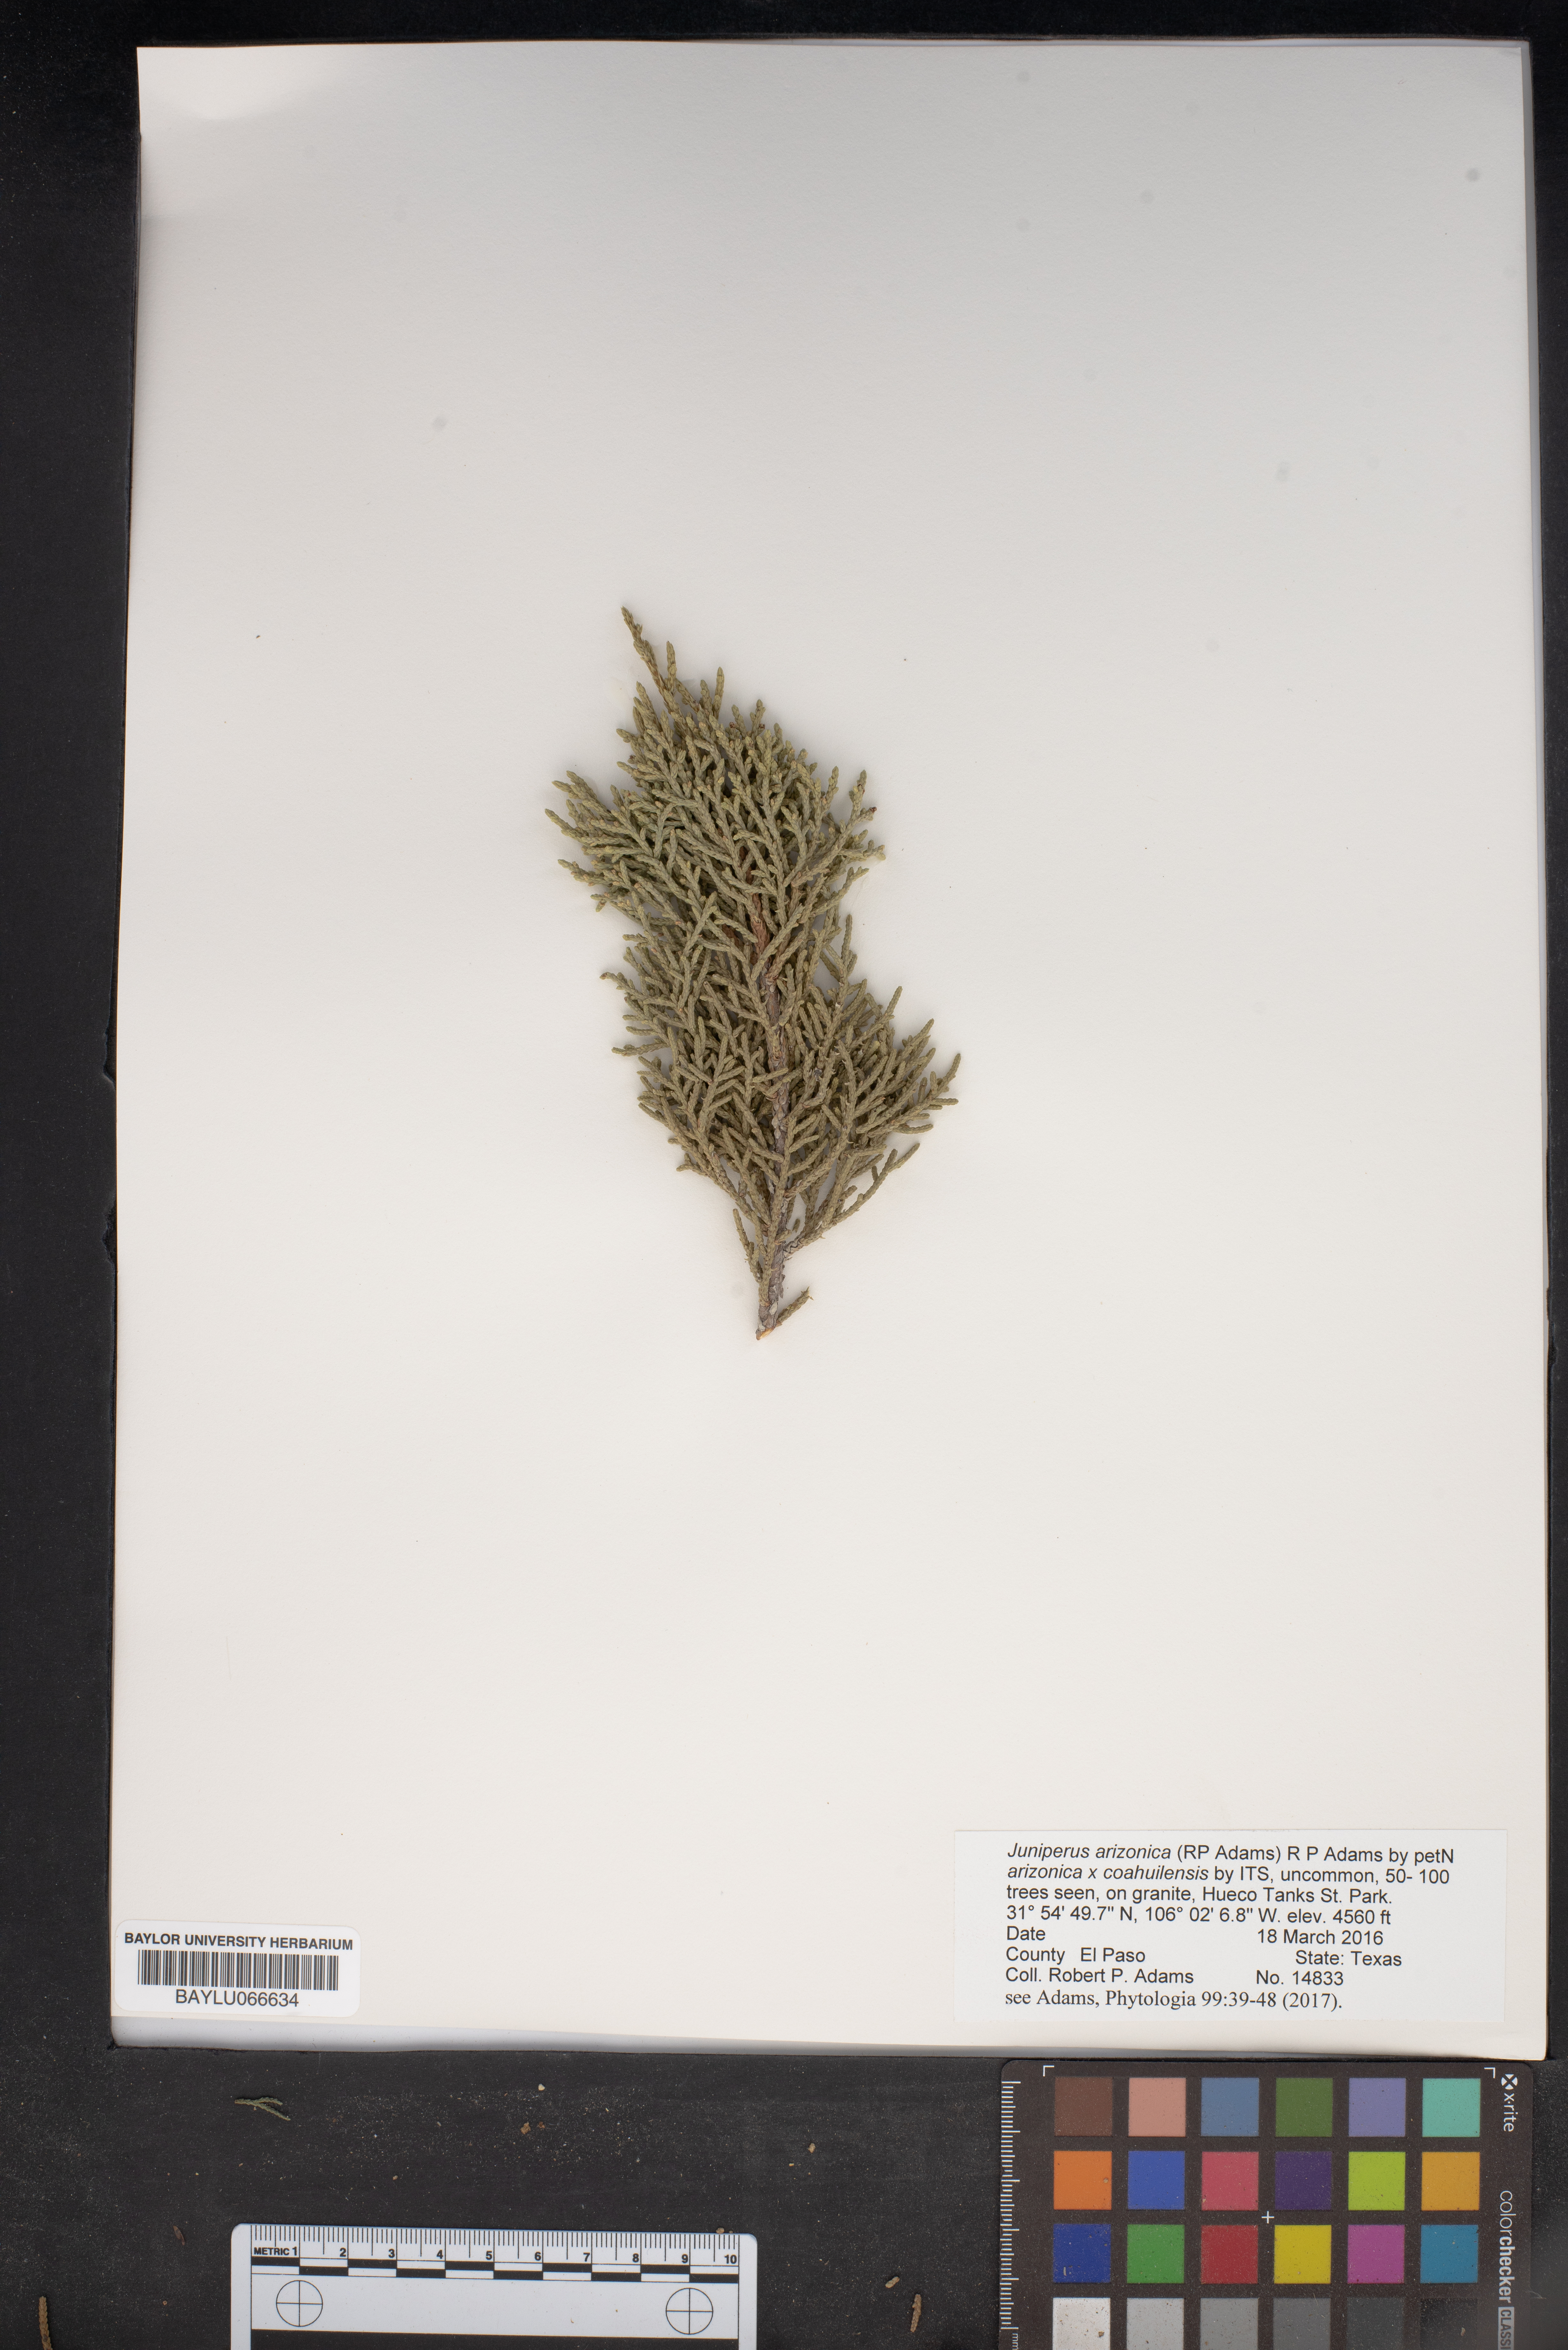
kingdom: Plantae
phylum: Tracheophyta
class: Pinopsida
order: Pinales
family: Cupressaceae
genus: Juniperus
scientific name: Juniperus arizonica
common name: Arizona juniper
